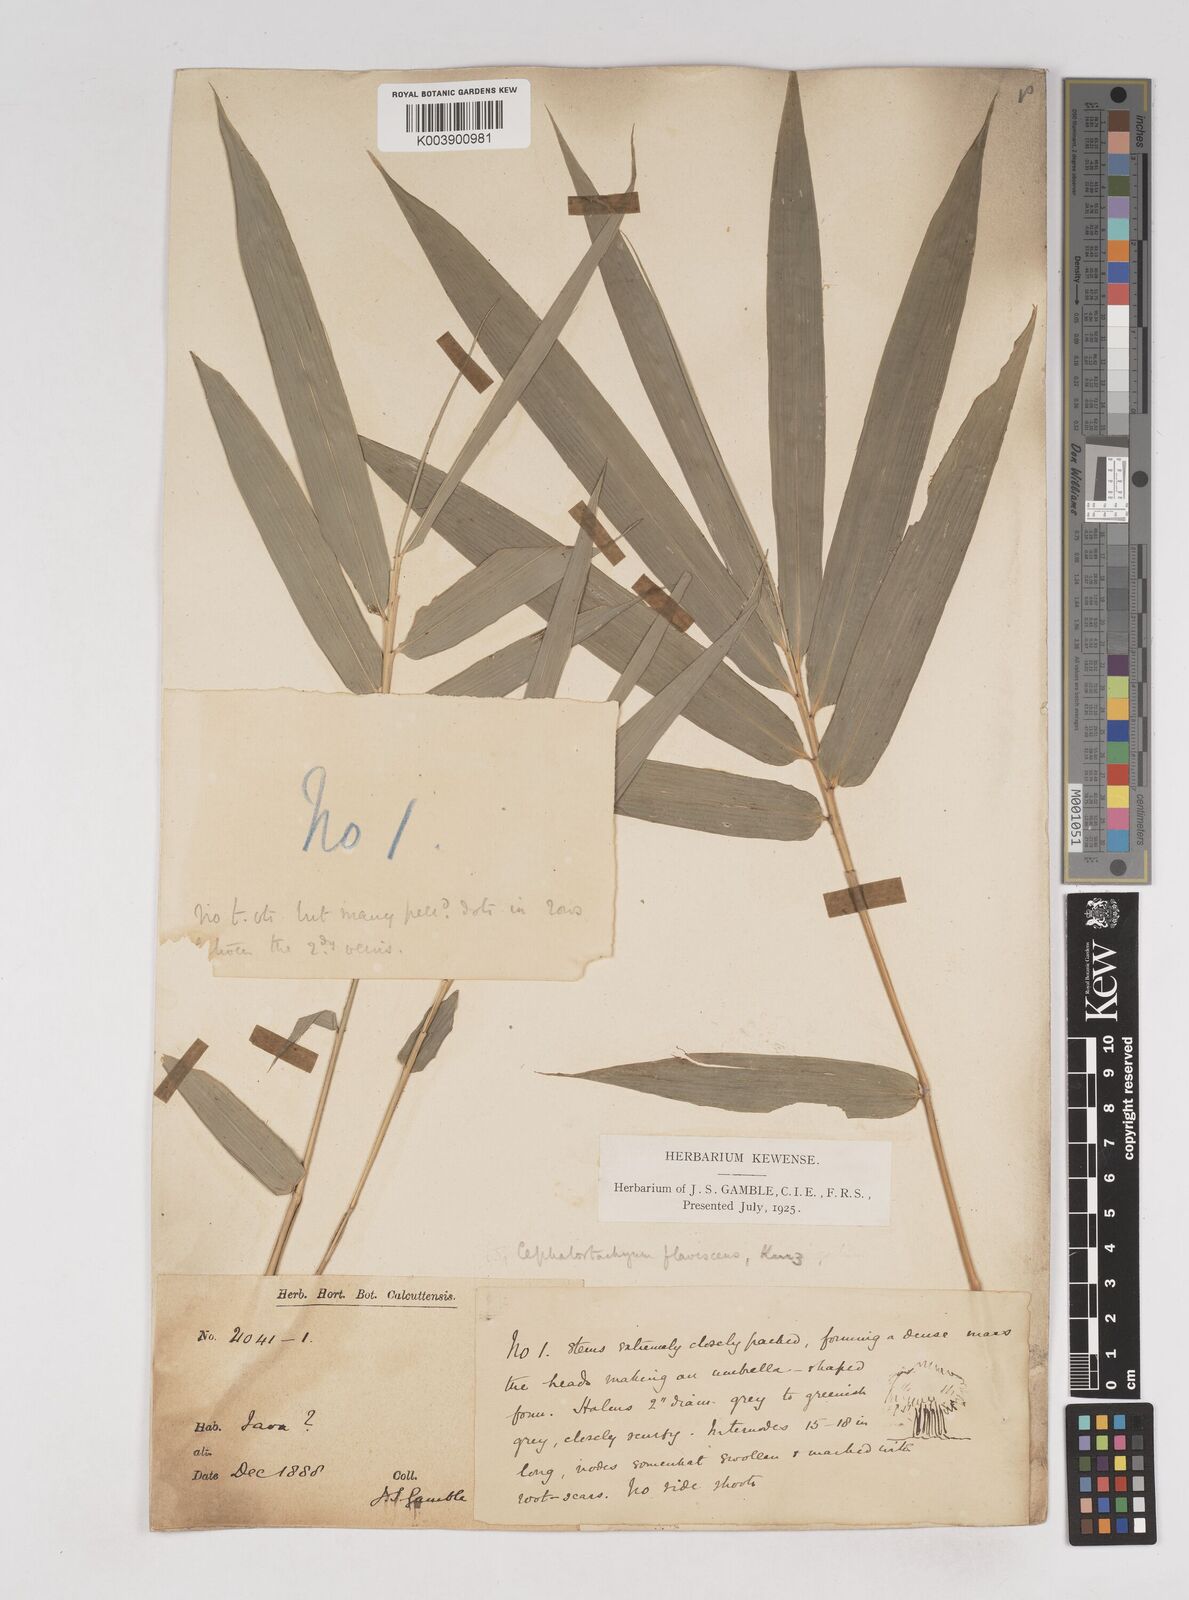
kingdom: Plantae
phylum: Tracheophyta
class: Liliopsida
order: Poales
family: Poaceae
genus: Cephalostachyum
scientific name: Cephalostachyum flavescens
